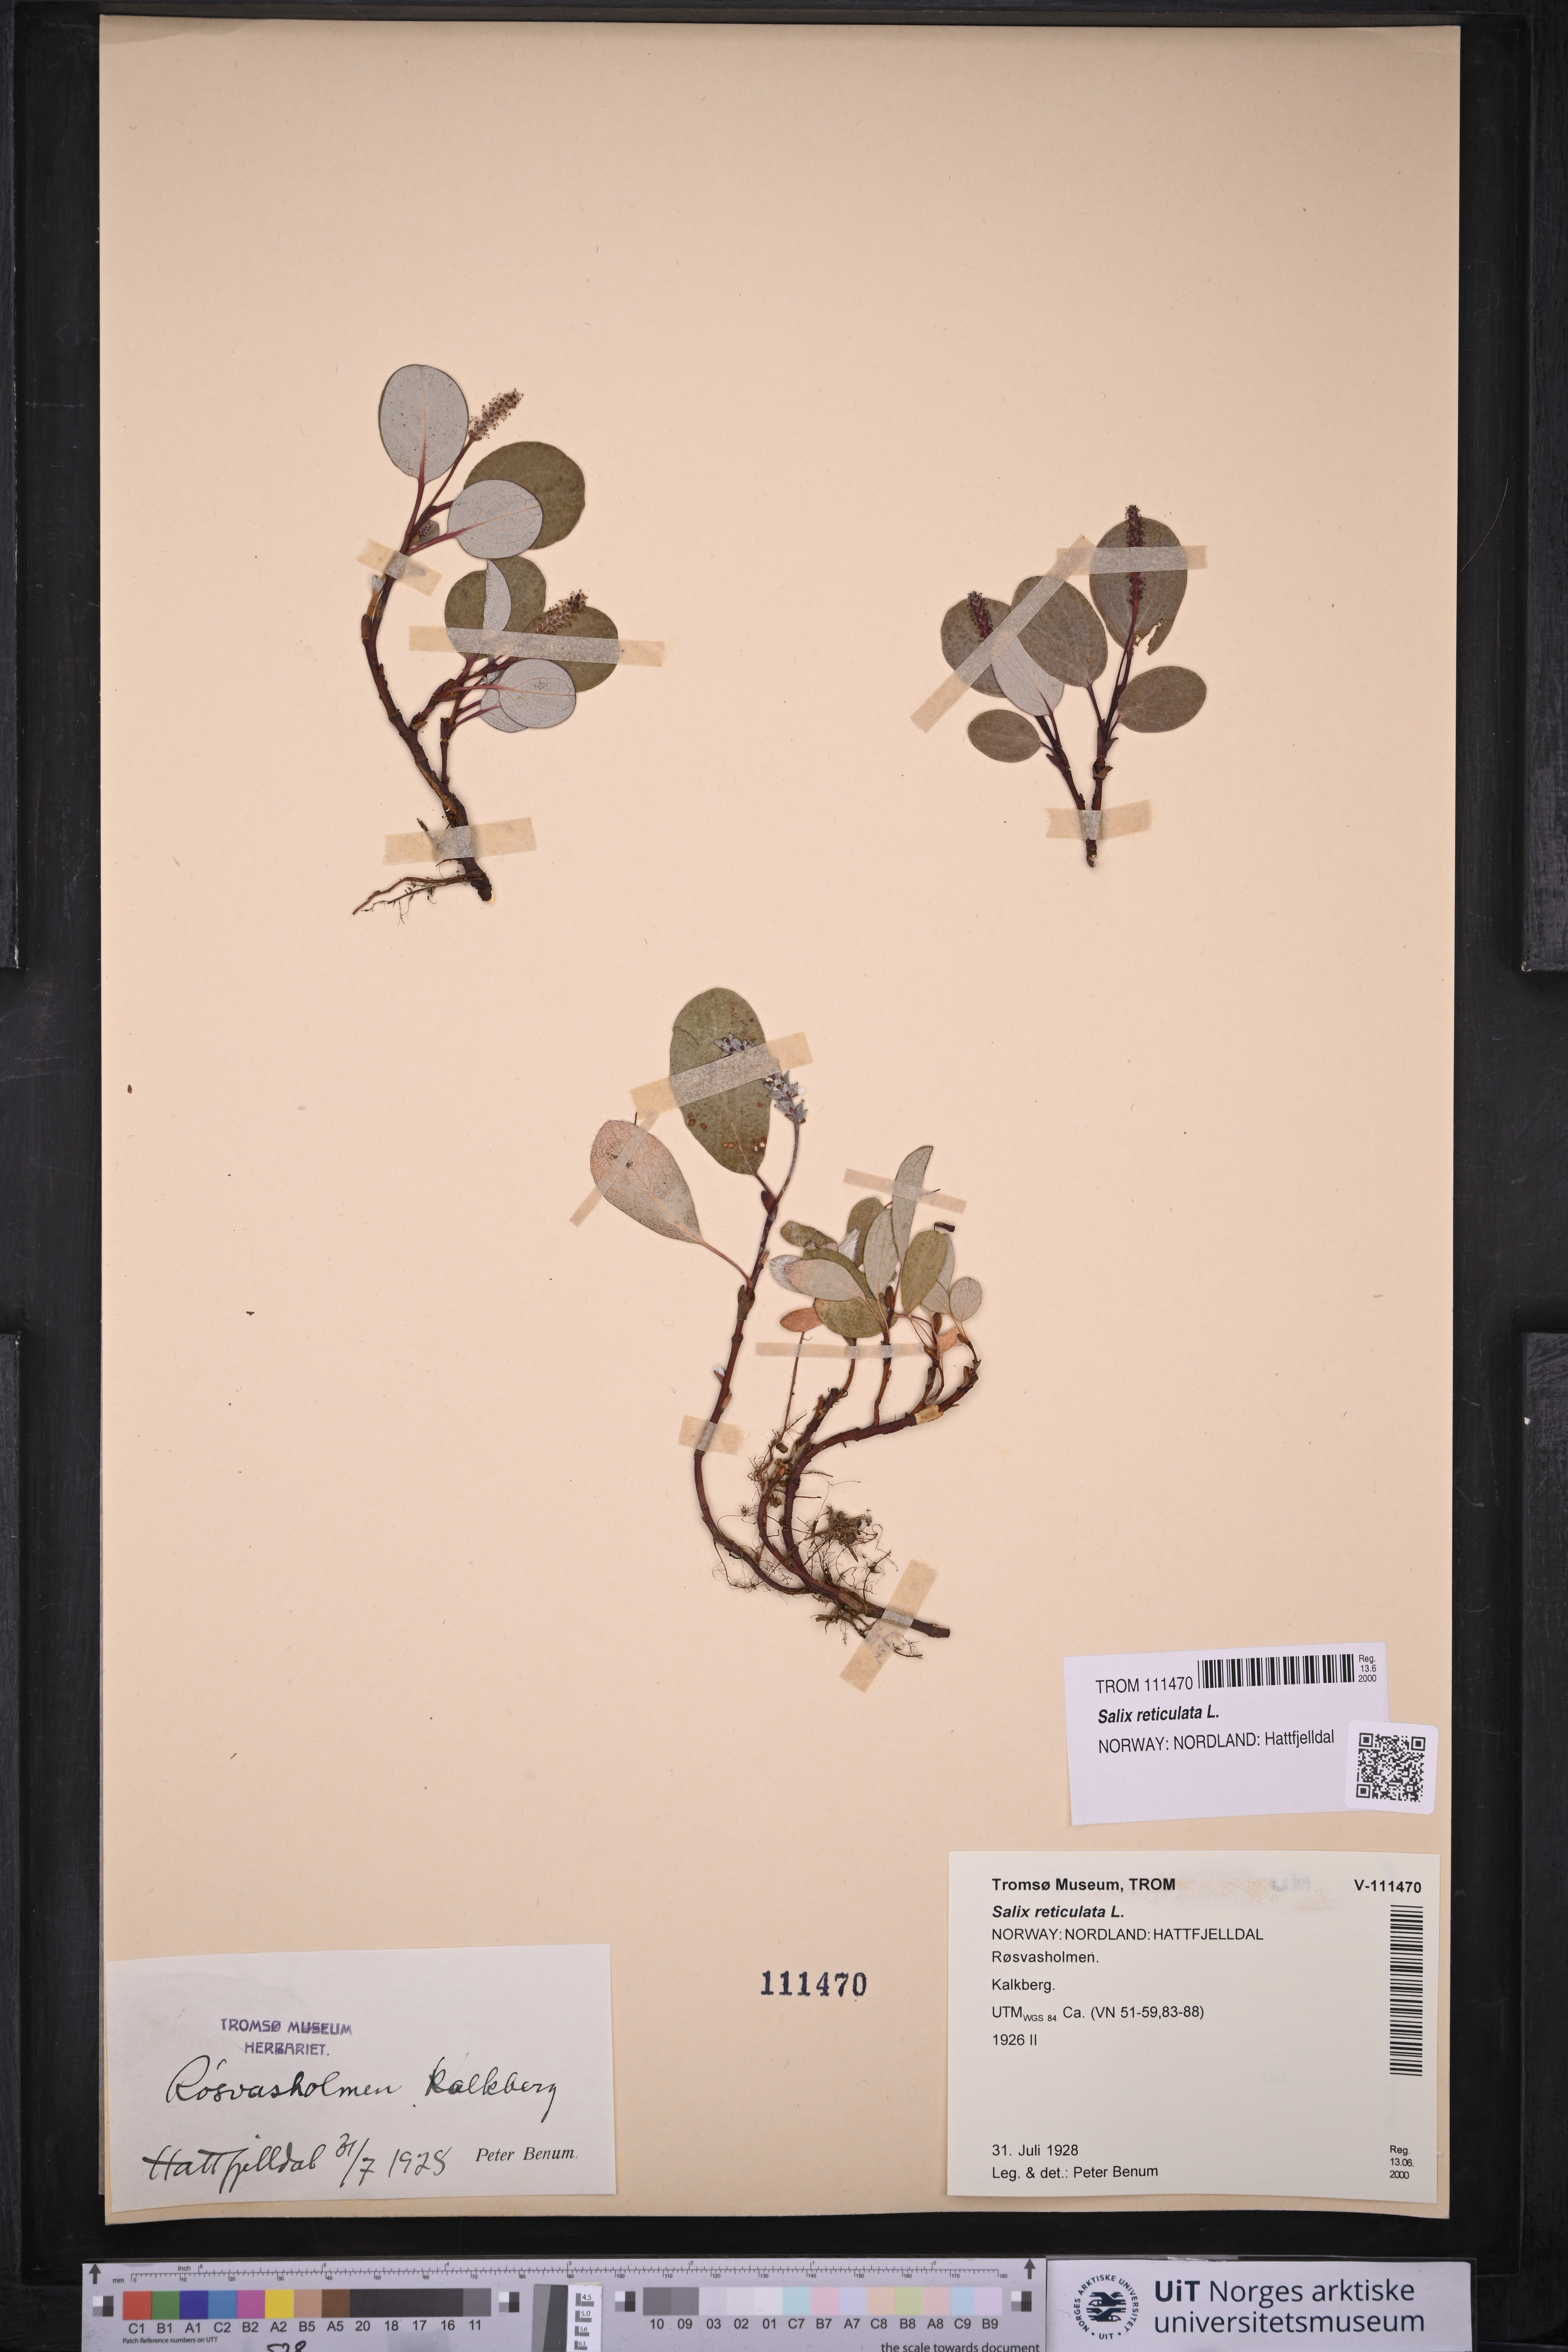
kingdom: Plantae
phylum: Tracheophyta
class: Magnoliopsida
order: Malpighiales
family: Salicaceae
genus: Salix
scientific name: Salix reticulata
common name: Net-leaved willow
